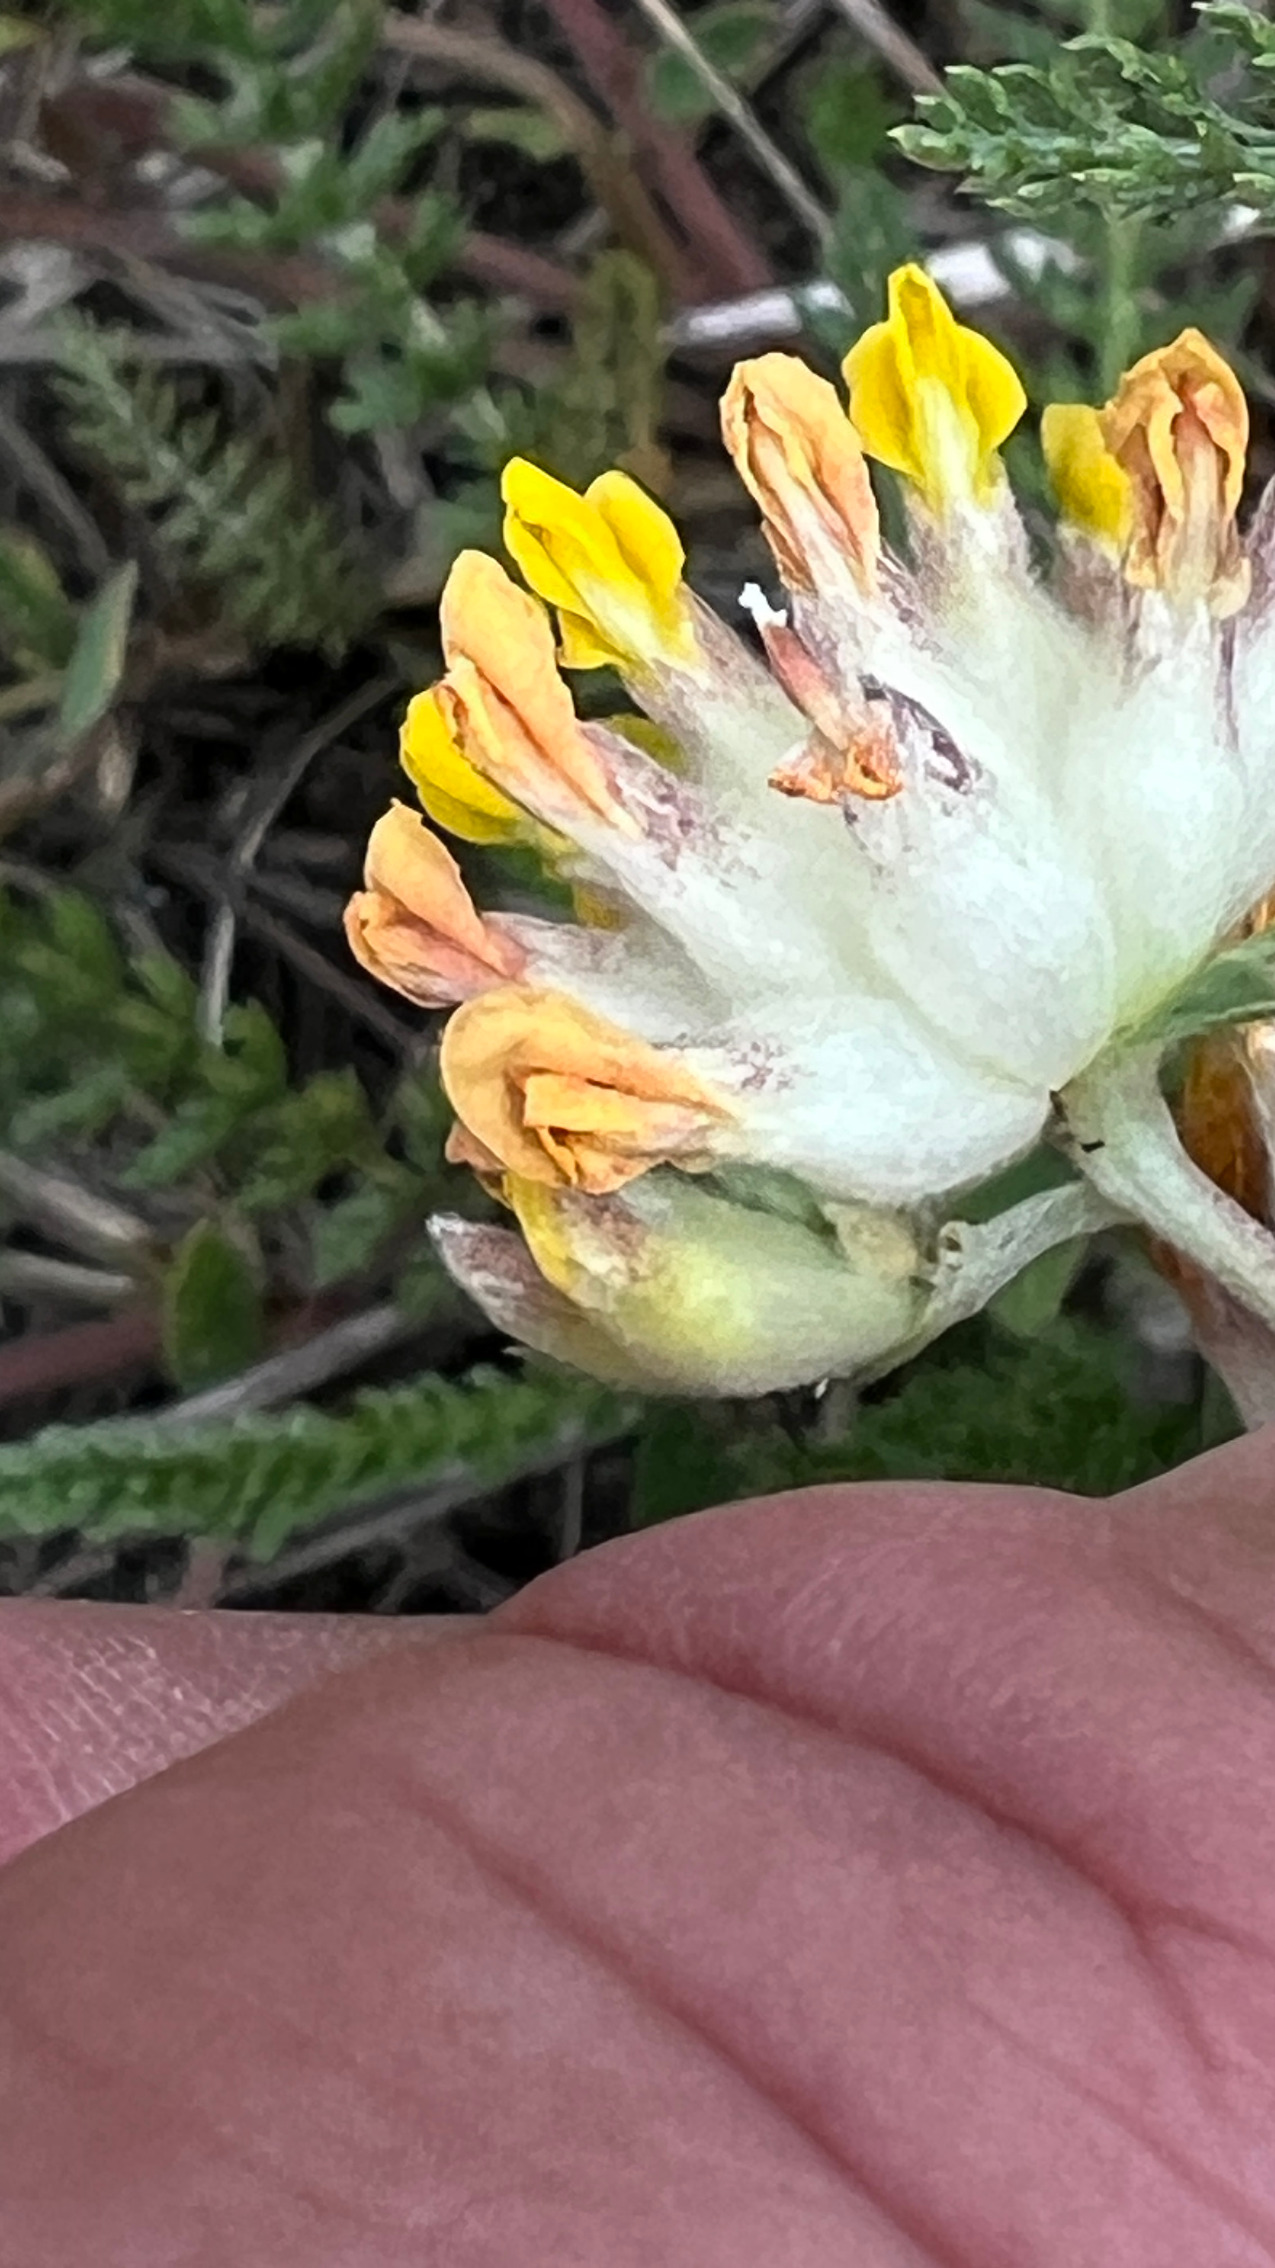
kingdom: Plantae
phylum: Tracheophyta
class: Magnoliopsida
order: Fabales
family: Fabaceae
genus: Anthyllis
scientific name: Anthyllis vulneraria
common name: Rundbælg
